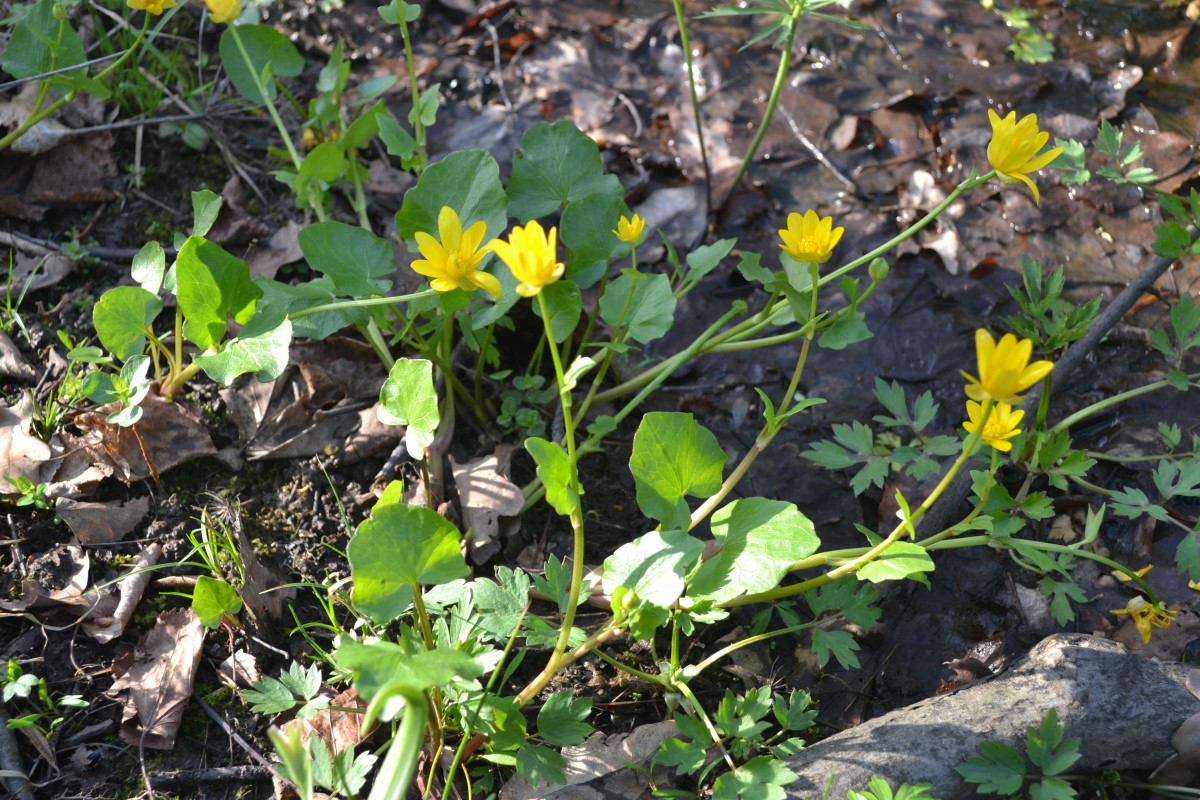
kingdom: Plantae
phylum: Tracheophyta
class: Magnoliopsida
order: Ranunculales
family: Ranunculaceae
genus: Ficaria
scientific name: Ficaria verna
